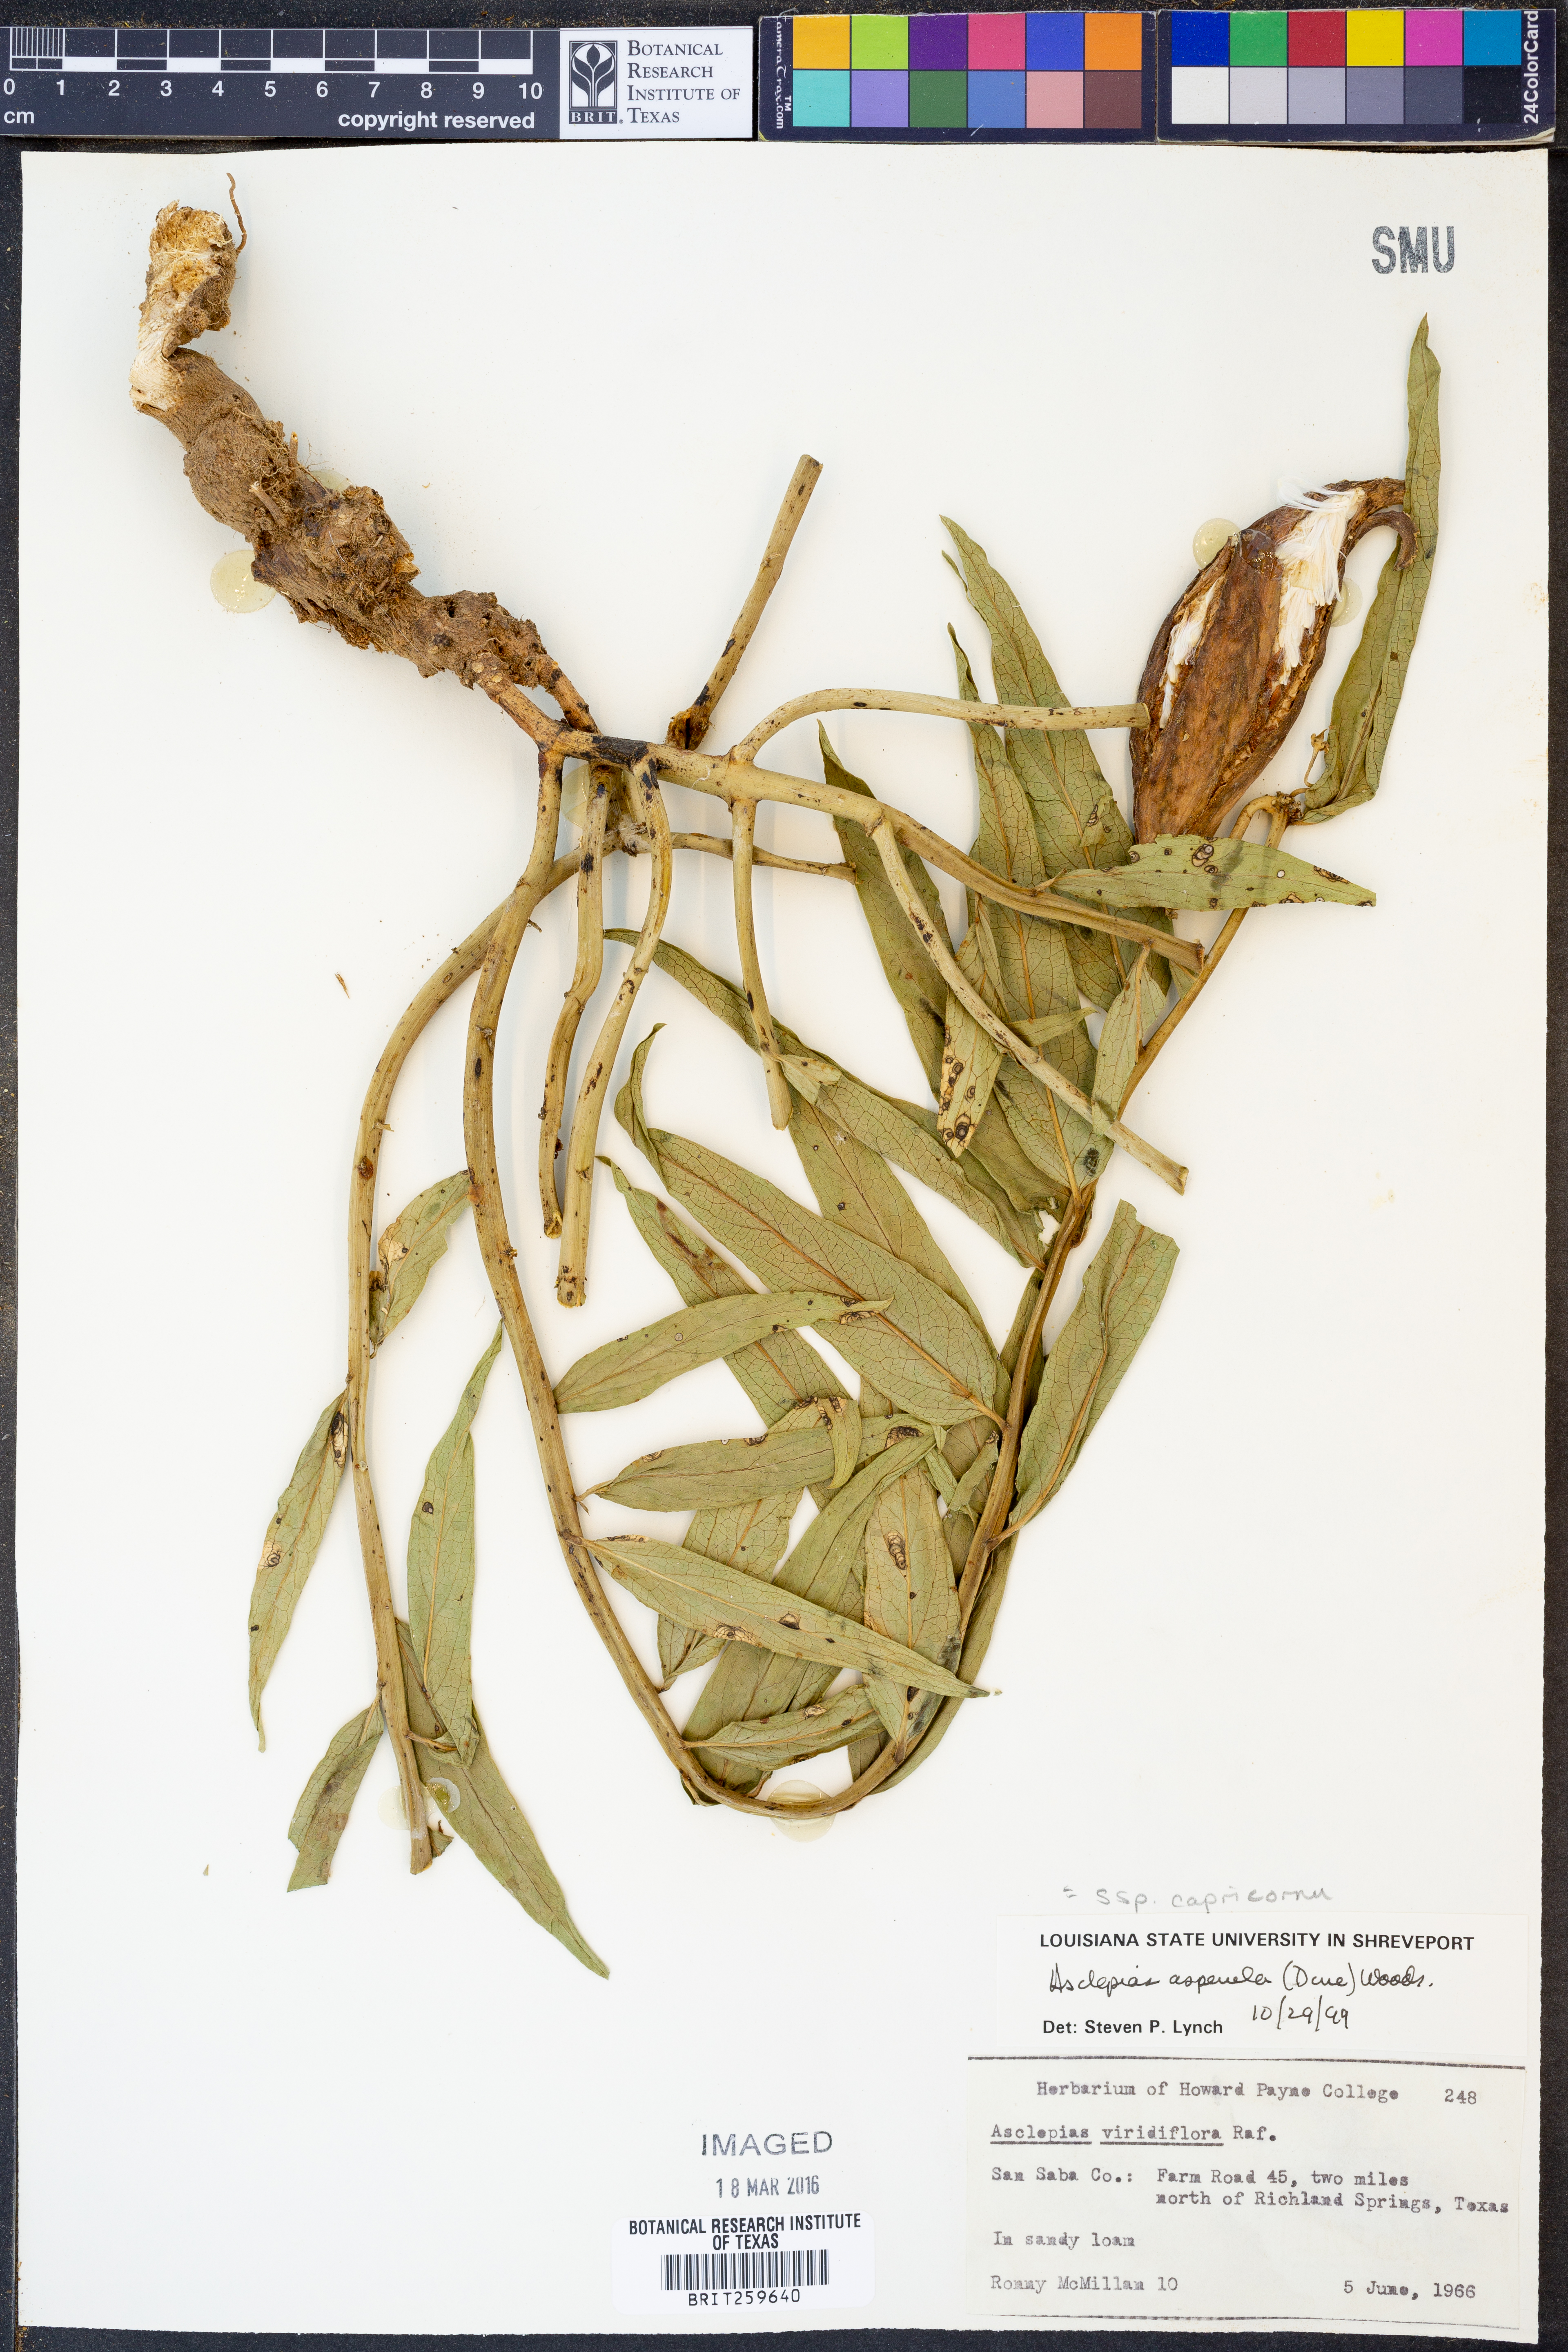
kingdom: Plantae
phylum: Tracheophyta
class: Magnoliopsida
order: Gentianales
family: Apocynaceae
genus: Asclepias
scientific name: Asclepias asperula
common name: Antelope horns
